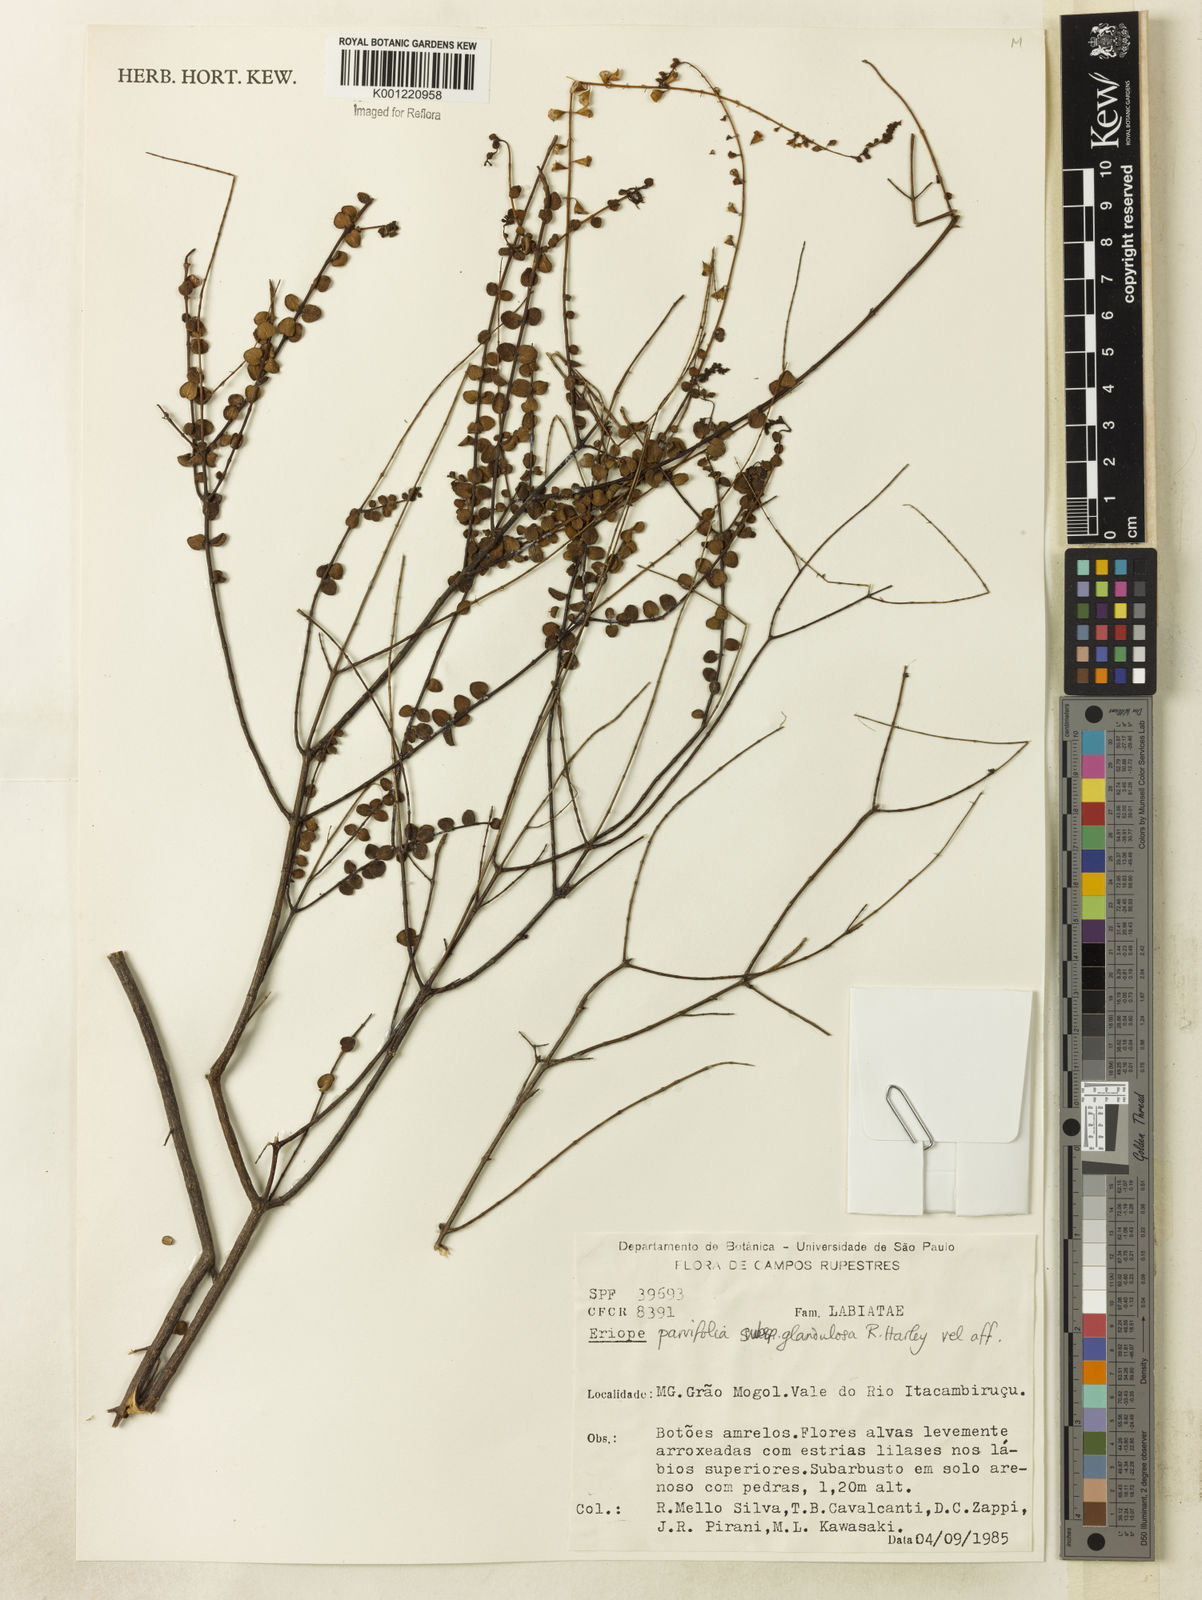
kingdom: Plantae
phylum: Tracheophyta
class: Magnoliopsida
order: Lamiales
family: Lamiaceae
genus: Eriope
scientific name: Eriope glandulosa
